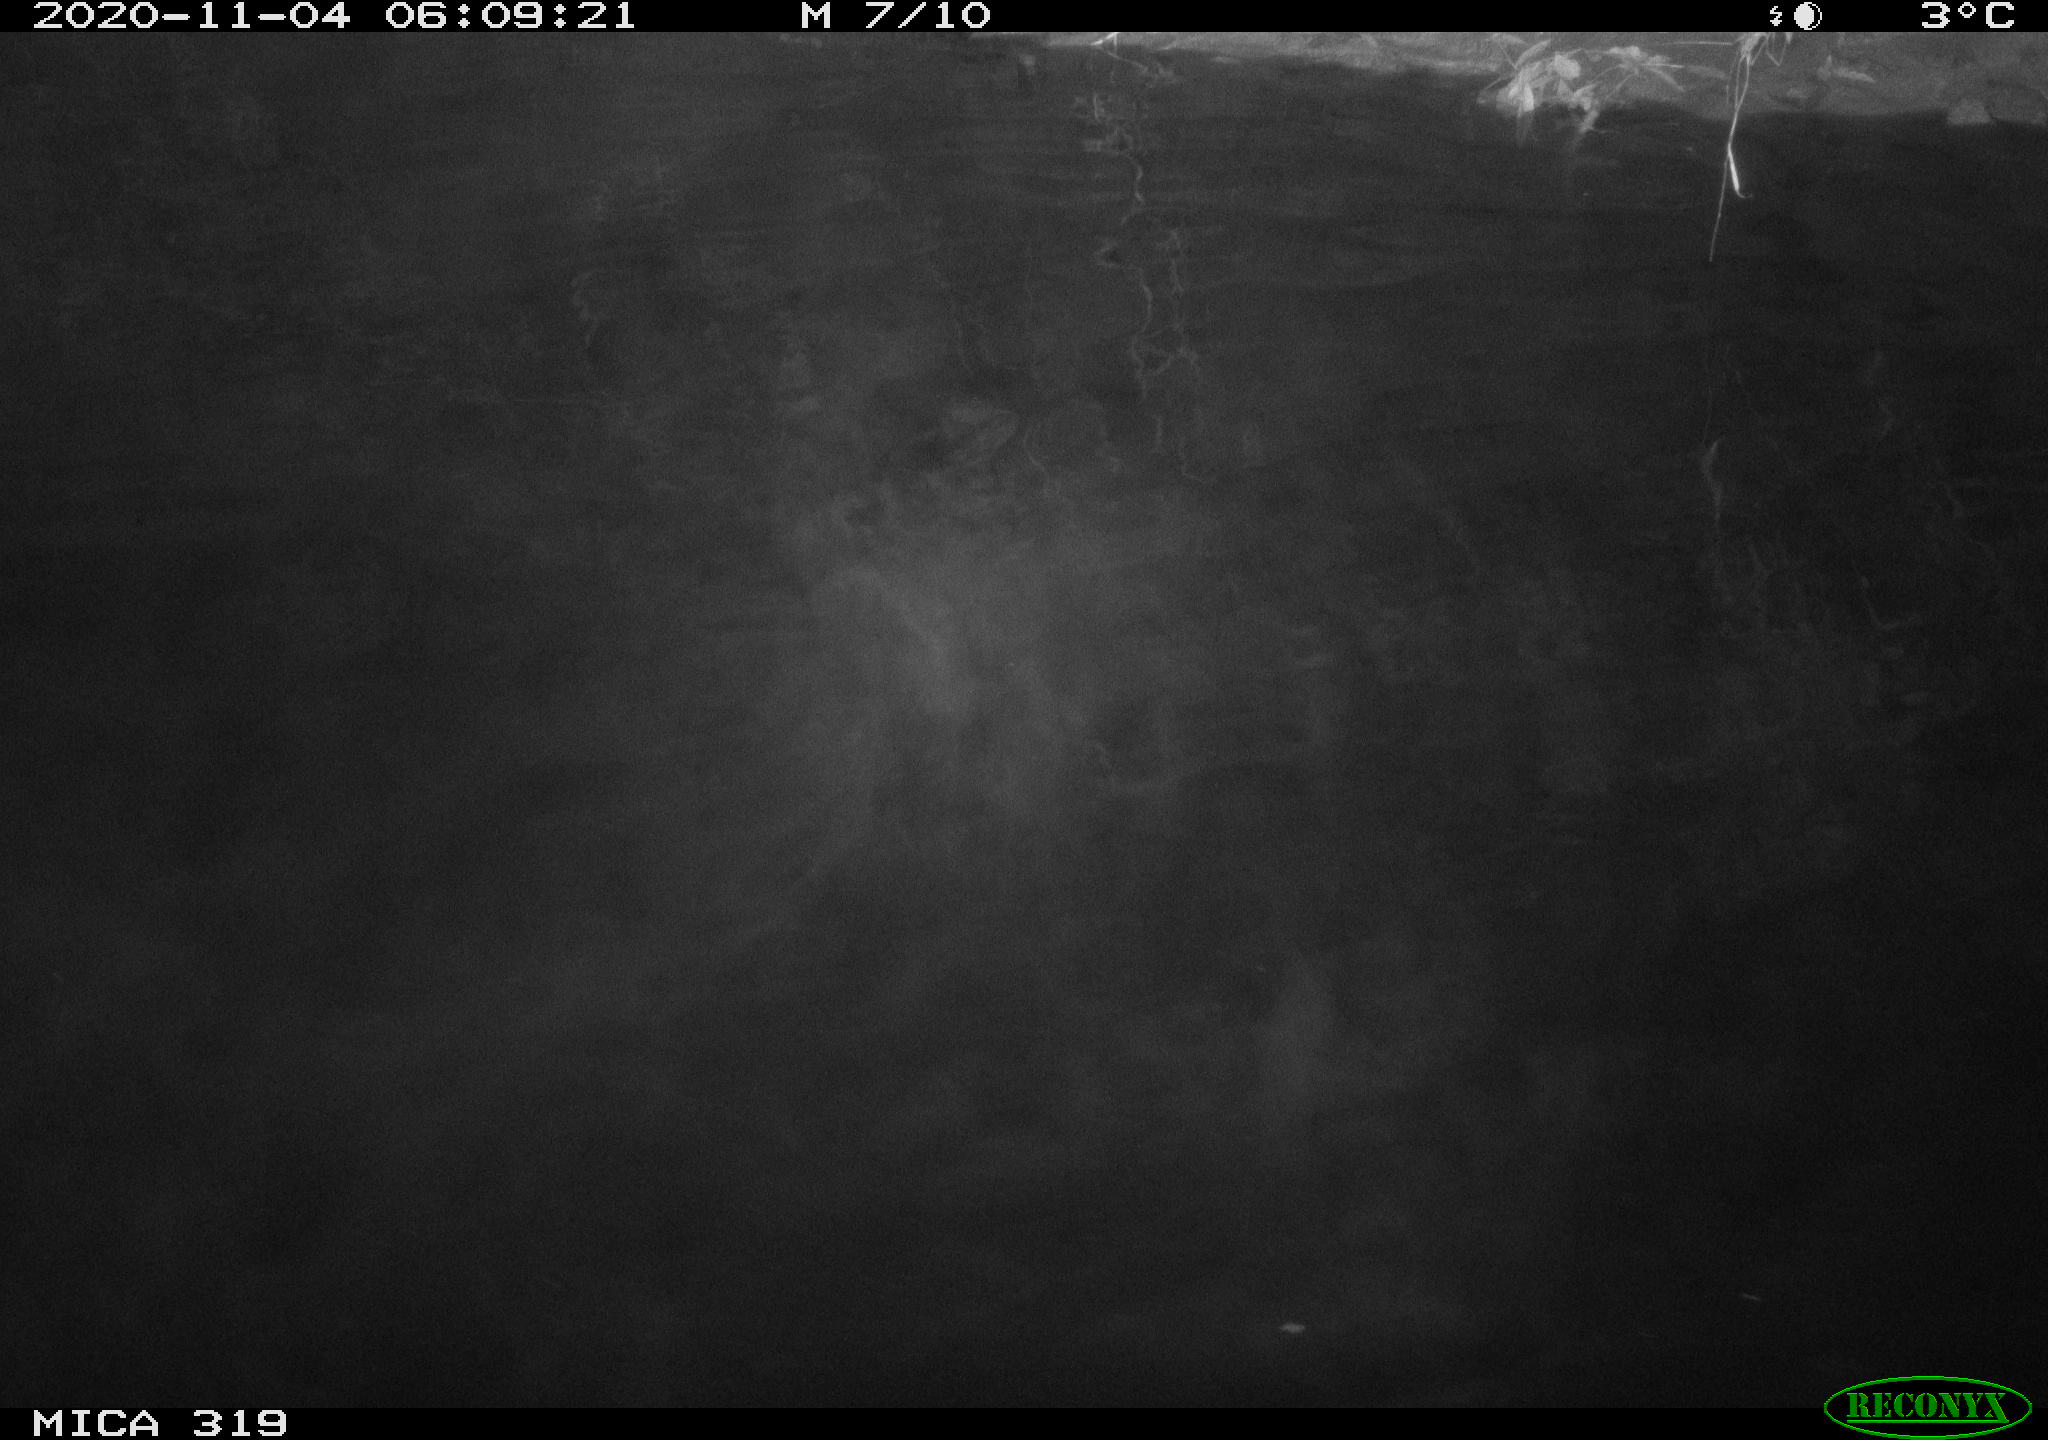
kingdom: Animalia
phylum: Chordata
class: Aves
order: Anseriformes
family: Anatidae
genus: Anas
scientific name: Anas platyrhynchos
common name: Mallard
